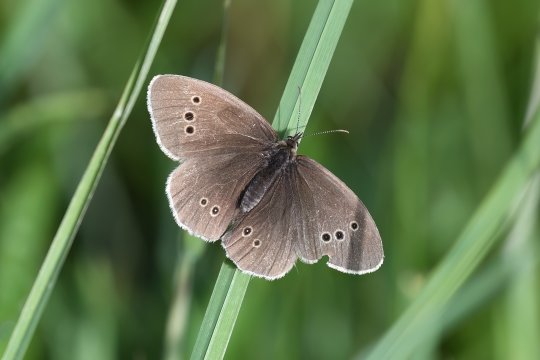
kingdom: Animalia
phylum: Arthropoda
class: Insecta
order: Lepidoptera
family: Nymphalidae
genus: Aphantopus
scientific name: Aphantopus hyperantus
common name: Ringlet
